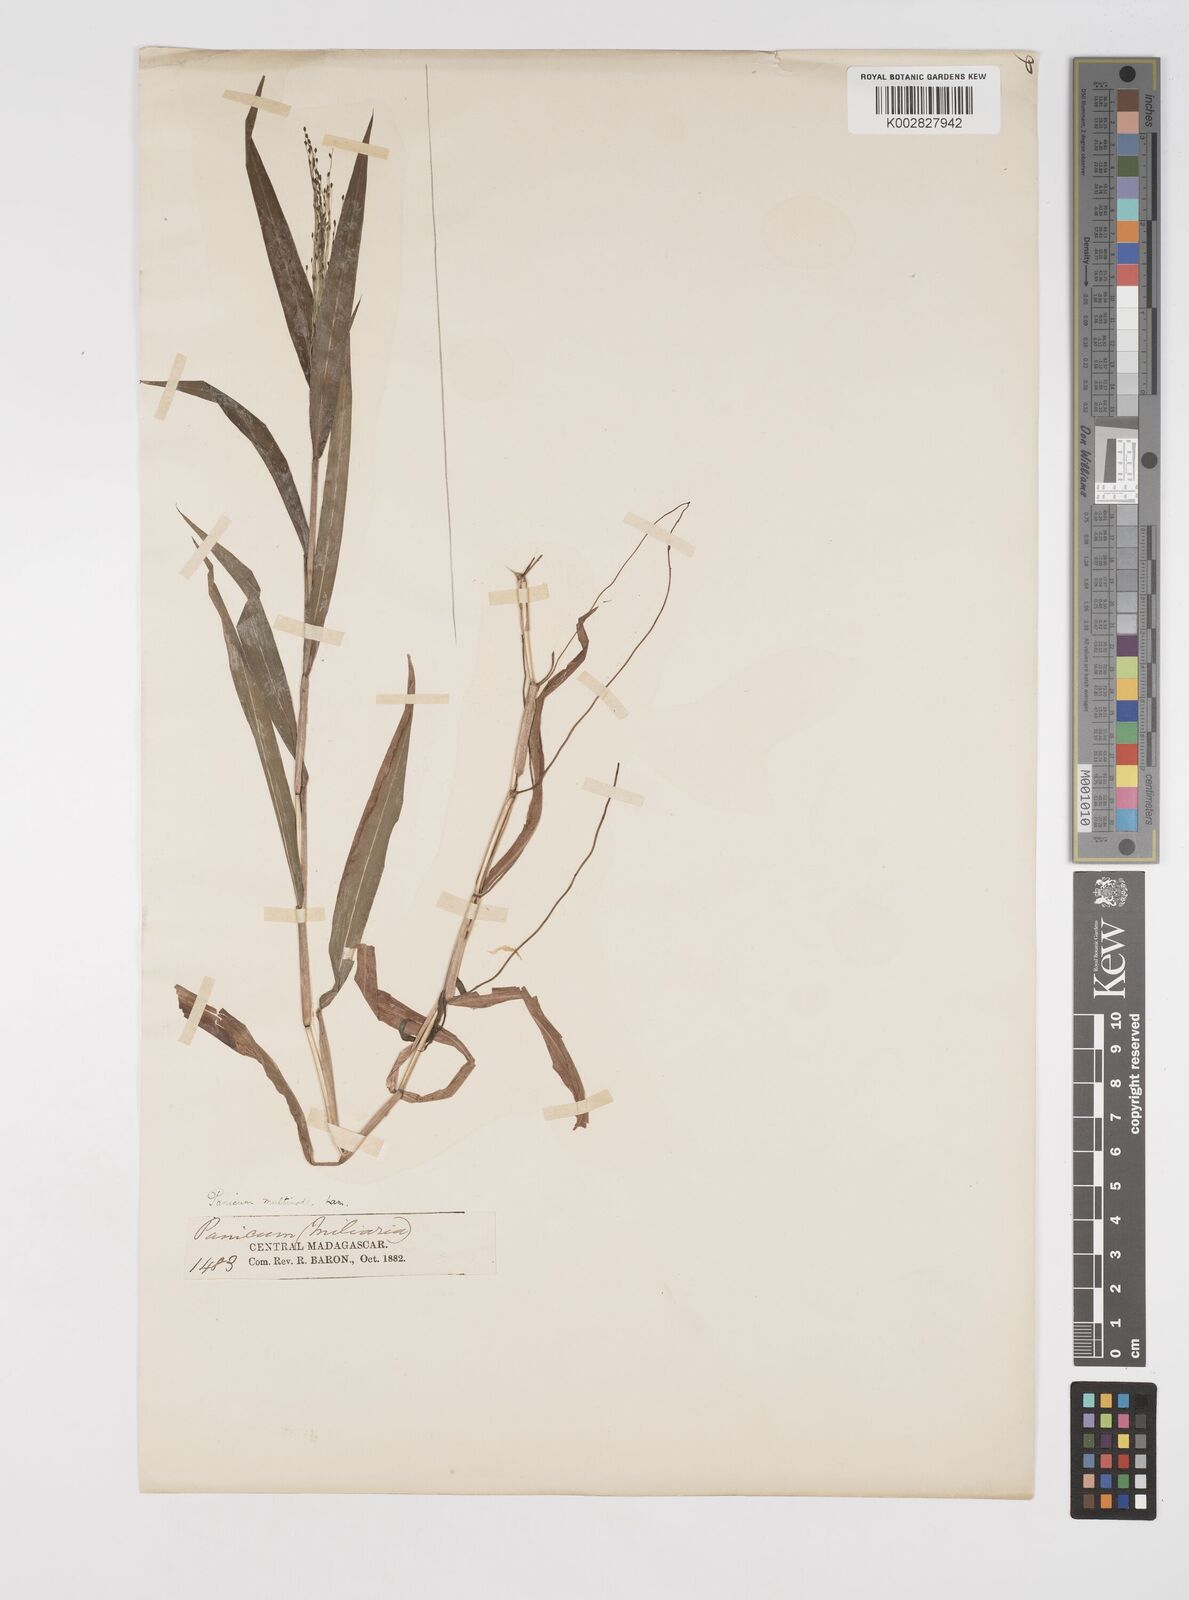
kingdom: Plantae
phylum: Tracheophyta
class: Liliopsida
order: Poales
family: Poaceae
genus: Cyrtococcum
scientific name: Cyrtococcum multinode
